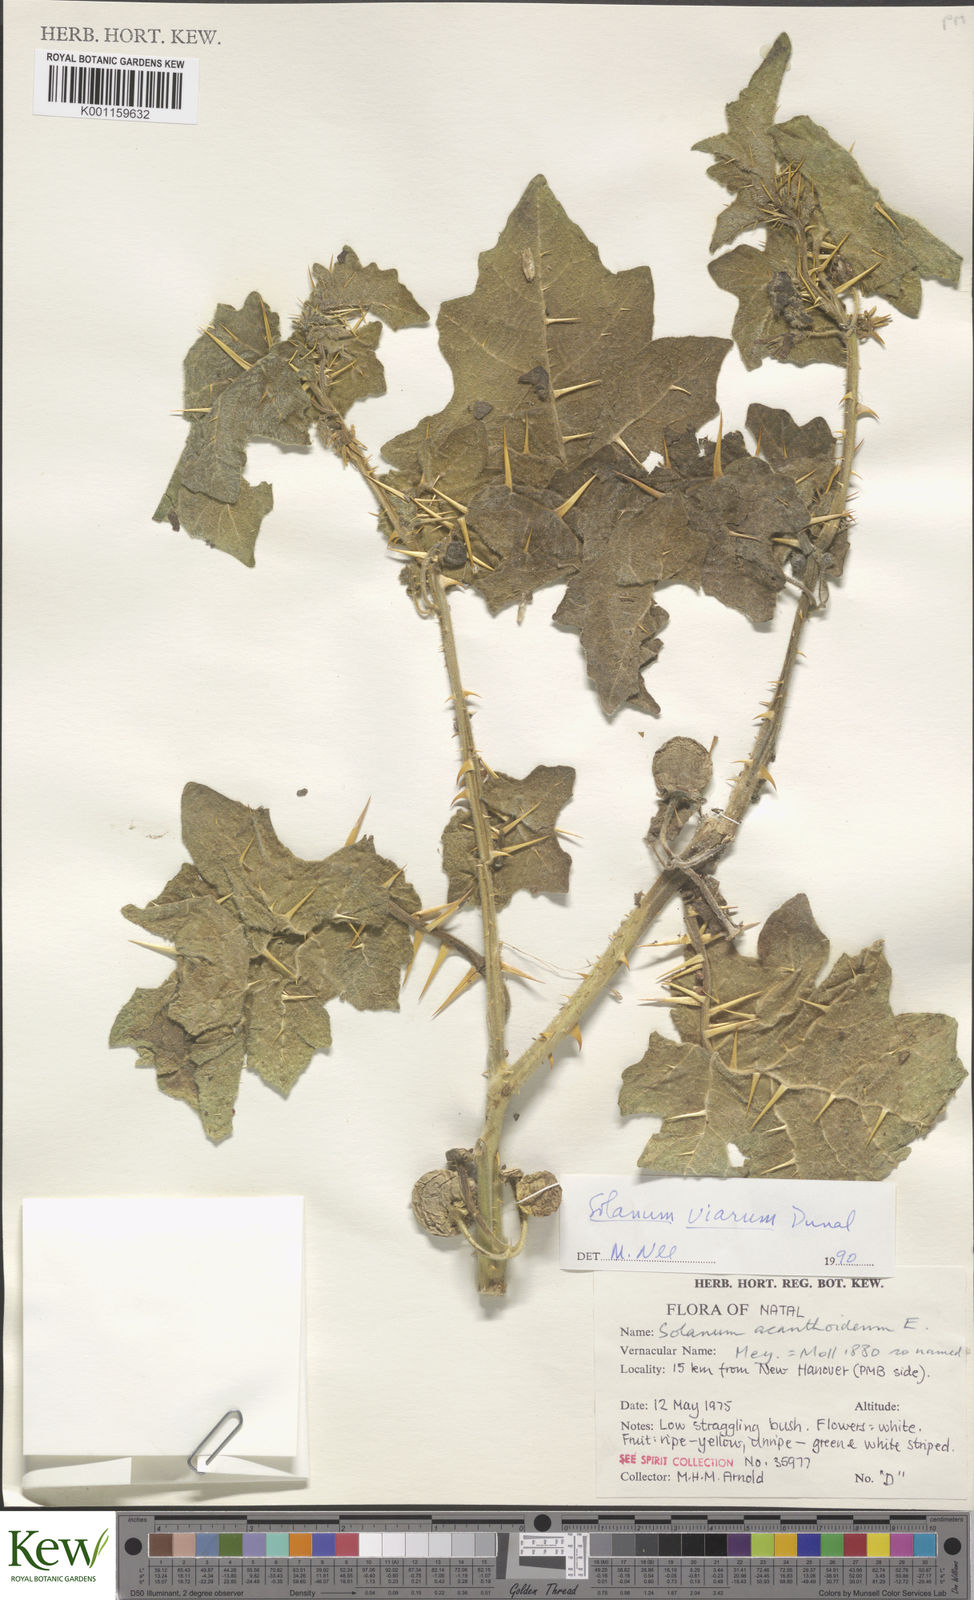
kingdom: Plantae
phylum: Tracheophyta
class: Magnoliopsida
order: Solanales
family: Solanaceae
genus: Solanum
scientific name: Solanum viarum
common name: Tropical soda apple
